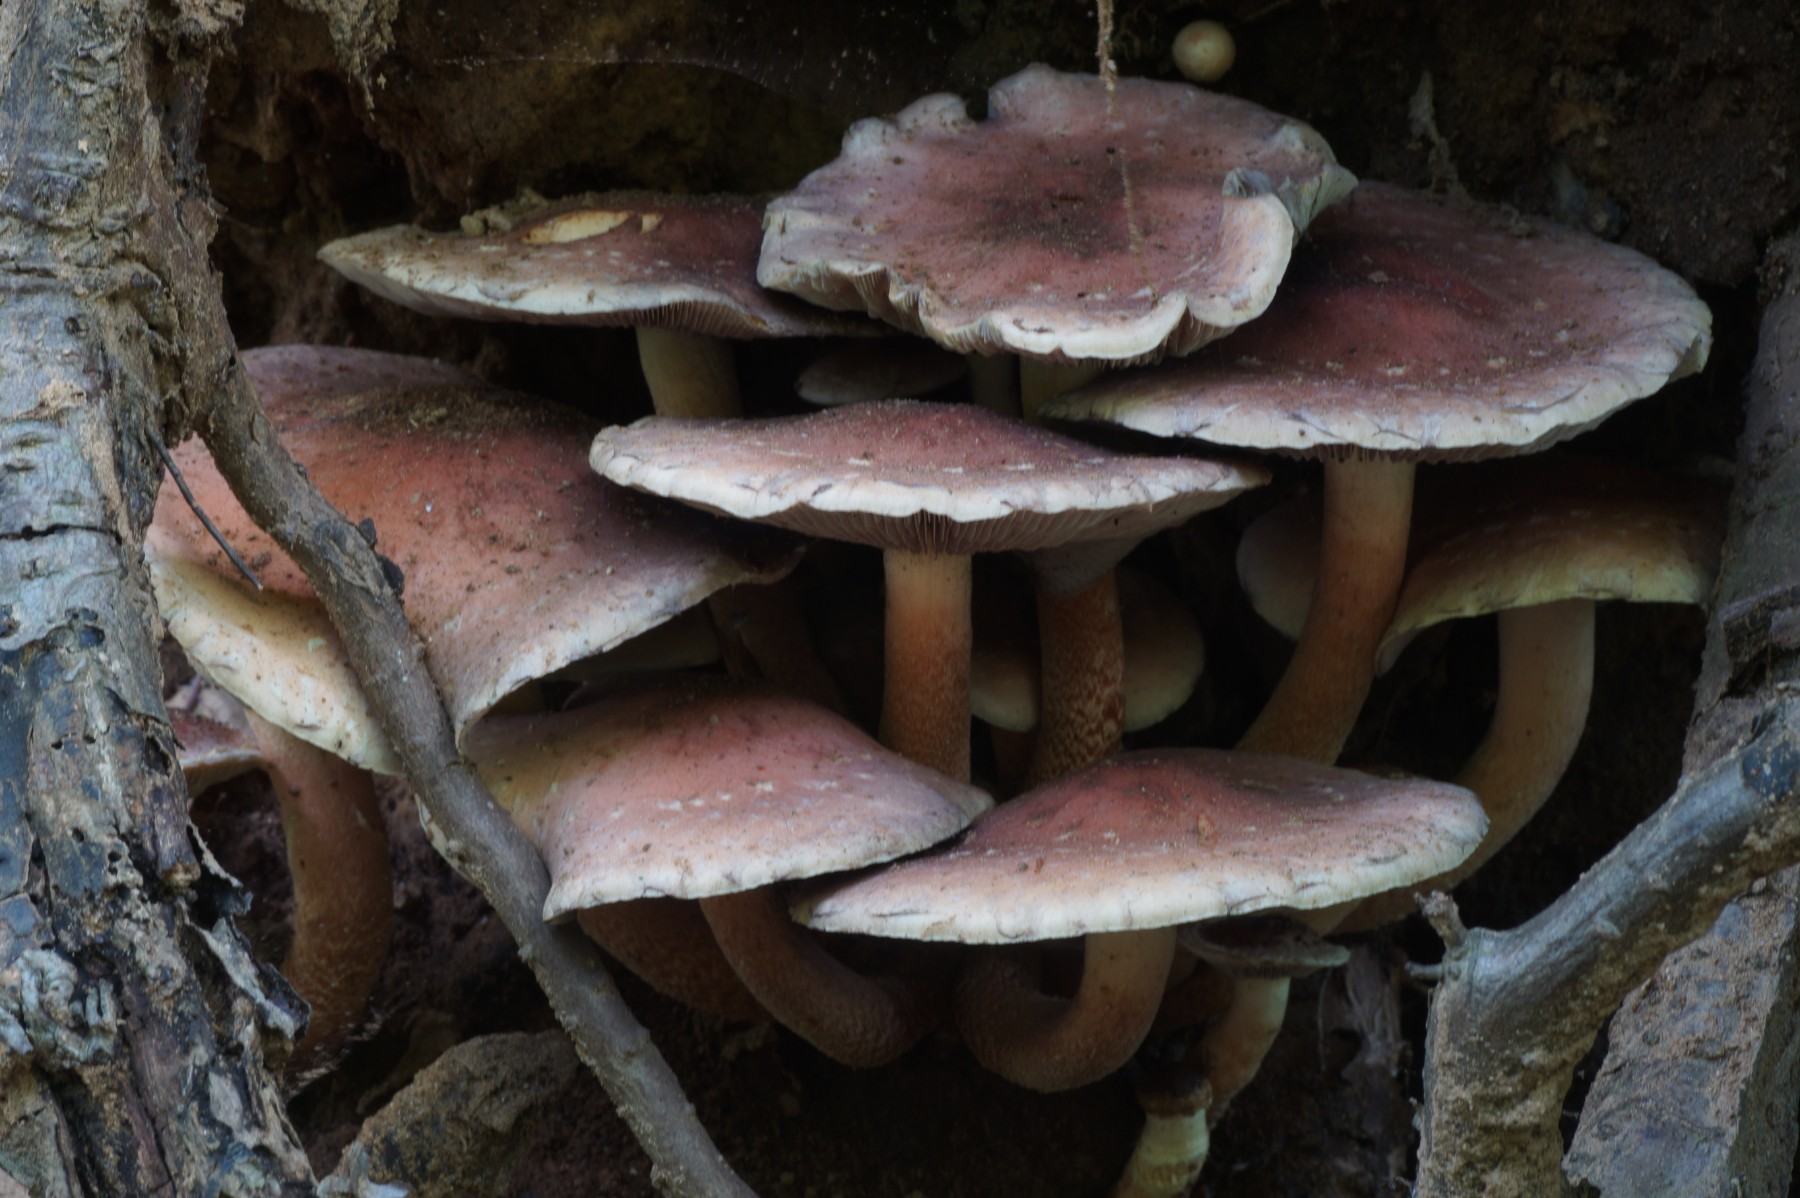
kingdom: Fungi
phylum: Basidiomycota
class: Agaricomycetes
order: Agaricales
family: Strophariaceae
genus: Hypholoma
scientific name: Hypholoma lateritium
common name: teglrød svovlhat
